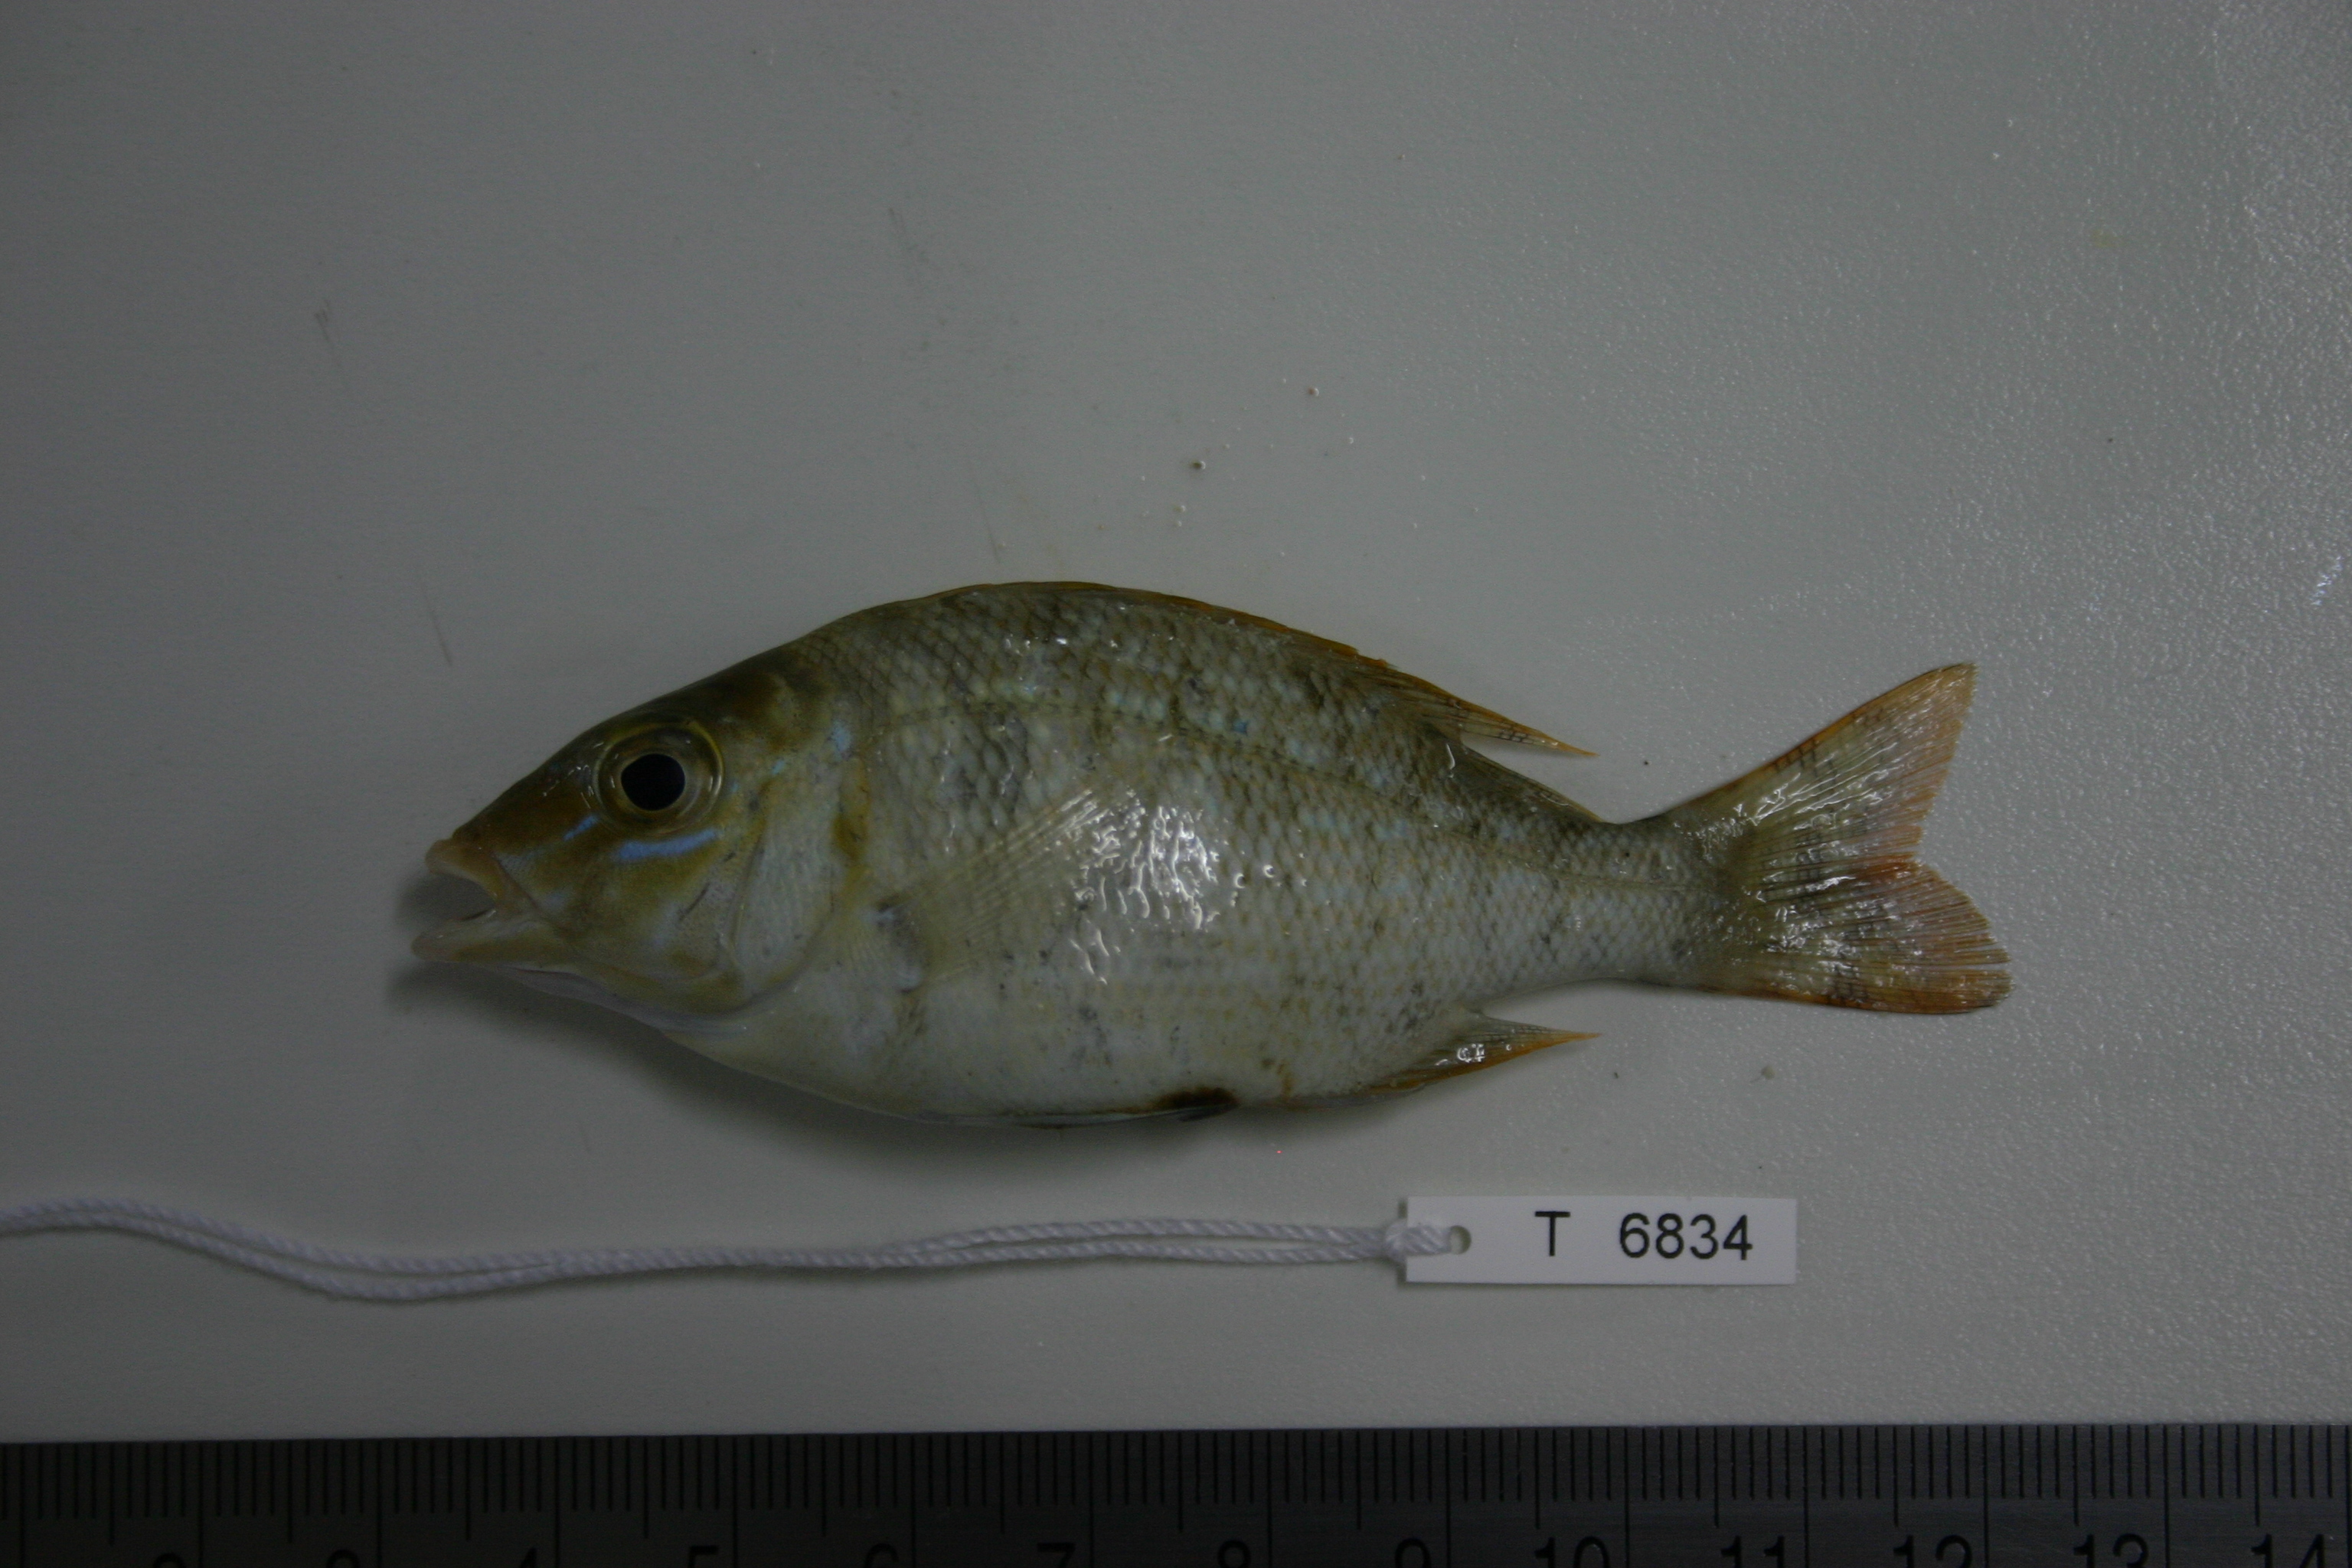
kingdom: Animalia
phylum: Chordata
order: Perciformes
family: Lethrinidae
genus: Lethrinus
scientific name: Lethrinus nebulosus
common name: Spangled emperor
